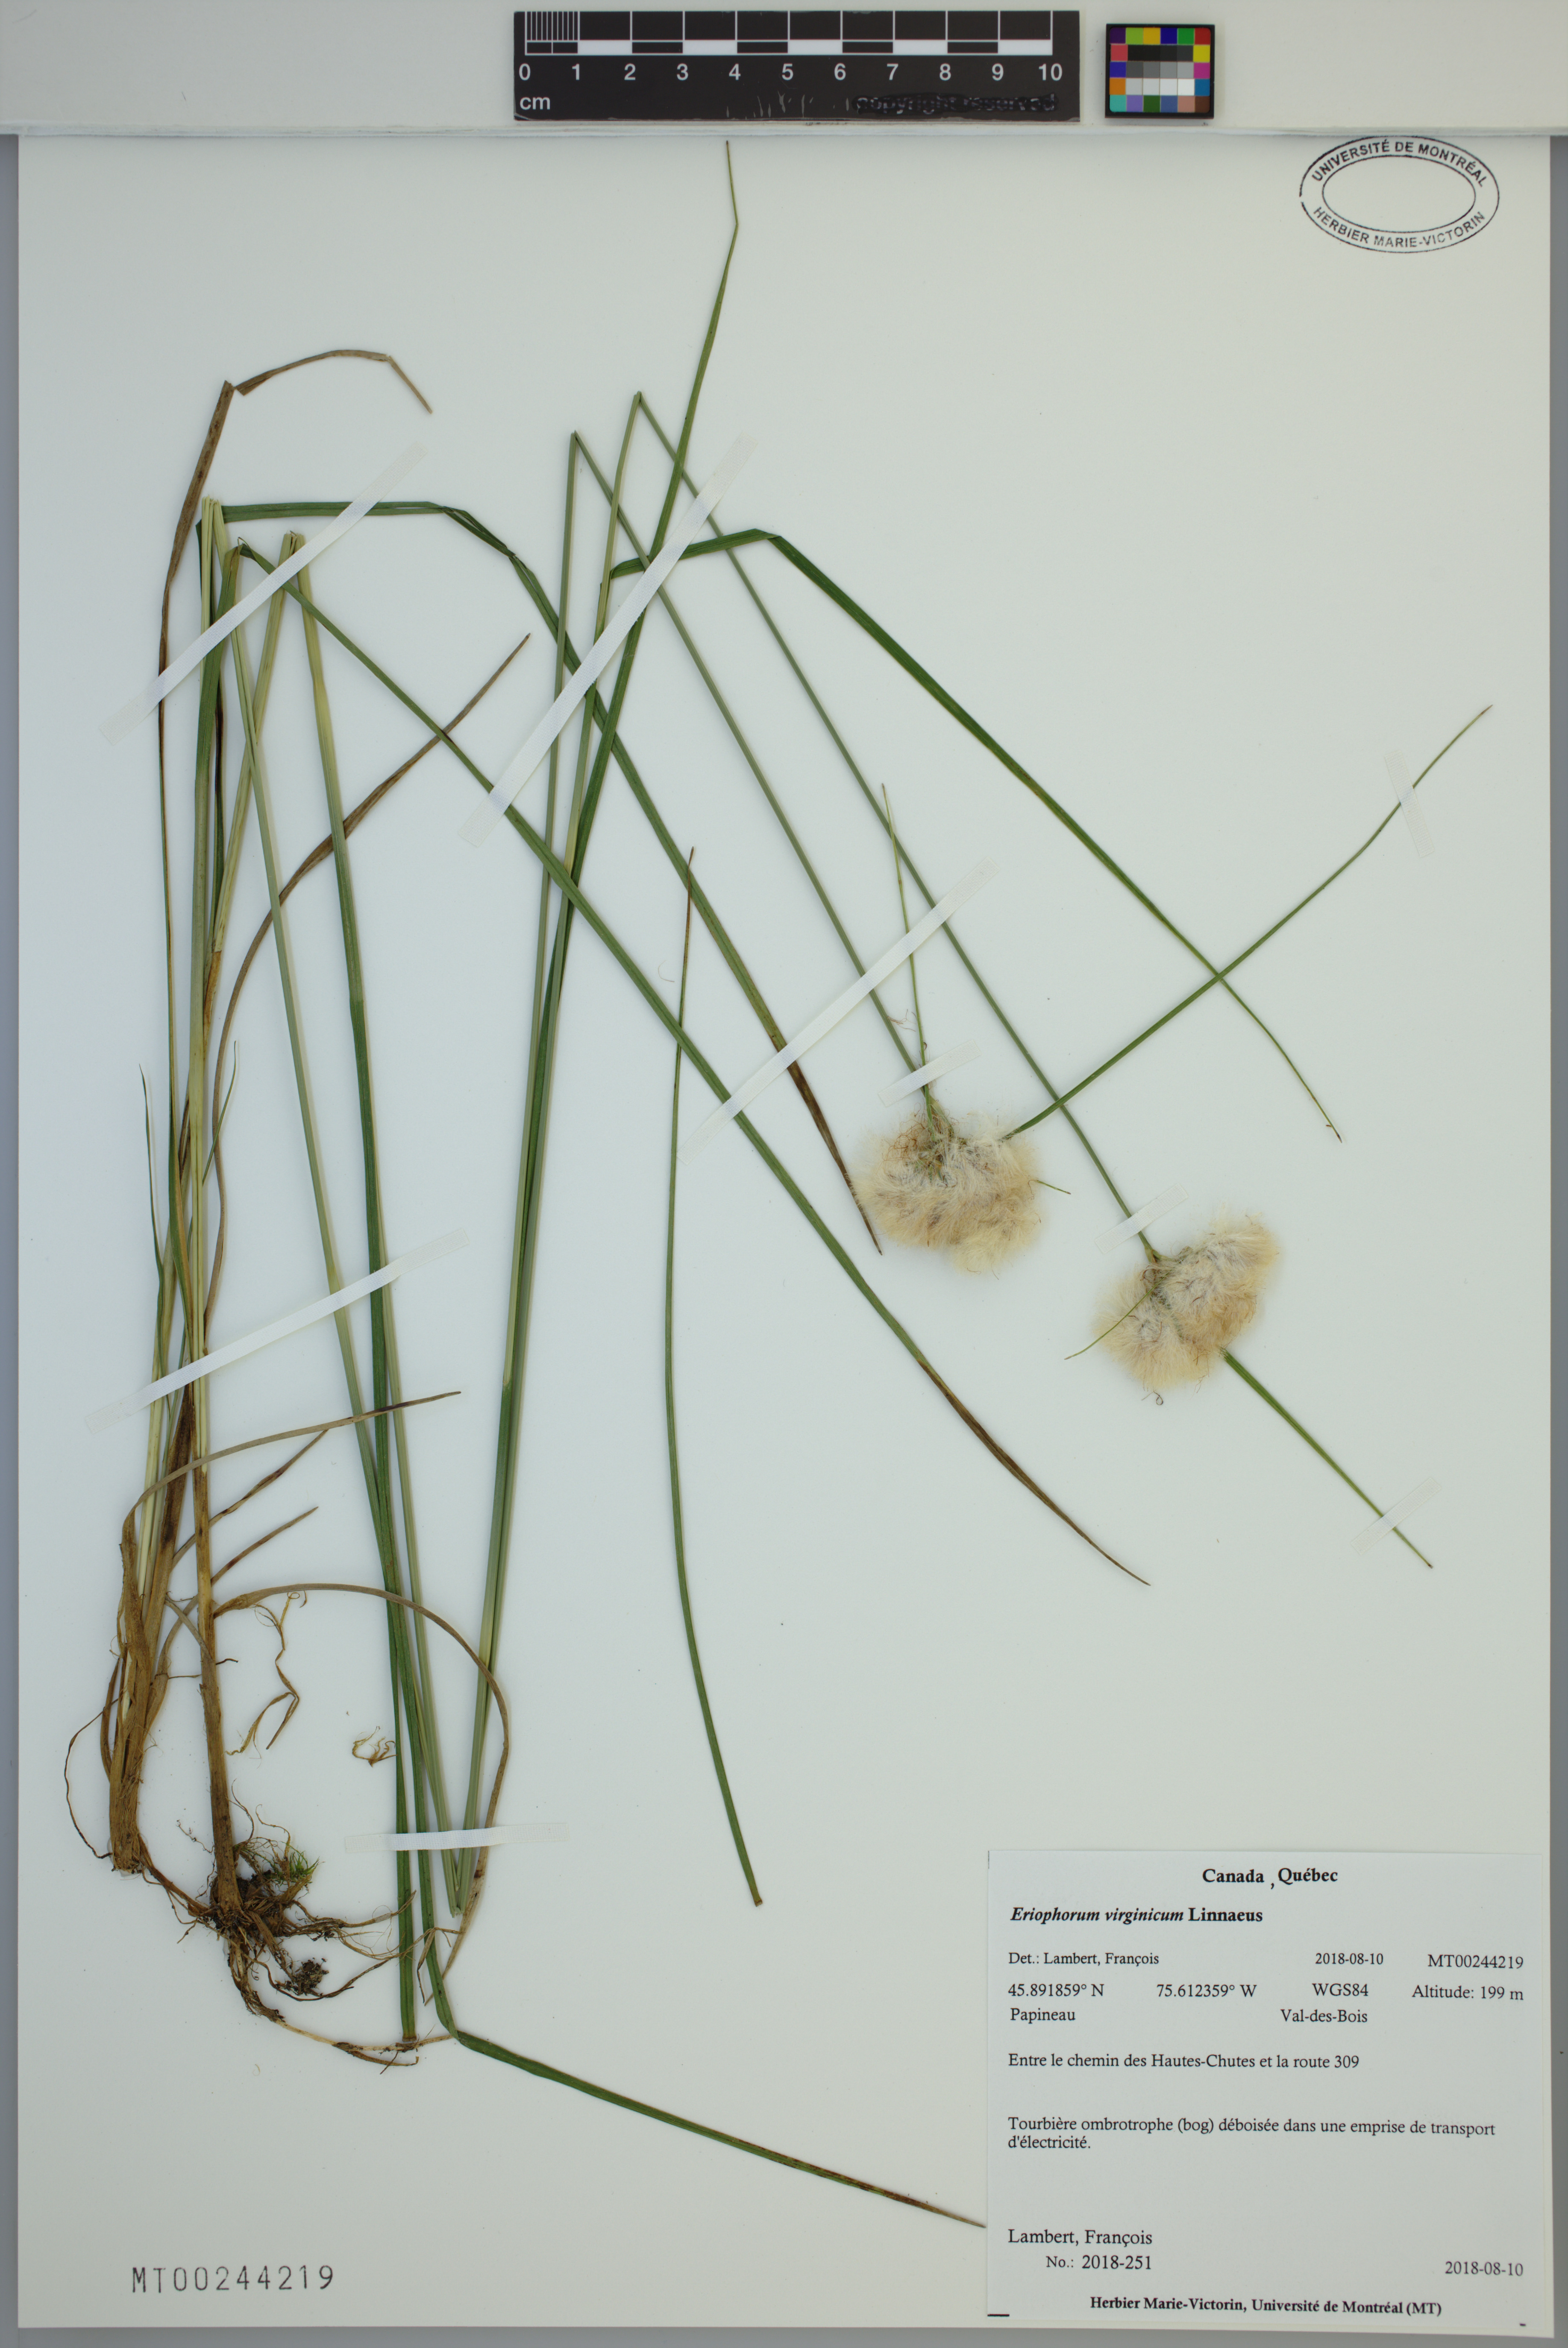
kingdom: Plantae
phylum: Tracheophyta
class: Liliopsida
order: Poales
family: Cyperaceae
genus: Eriophorum
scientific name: Eriophorum virginicum
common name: Tawny cottongrass
